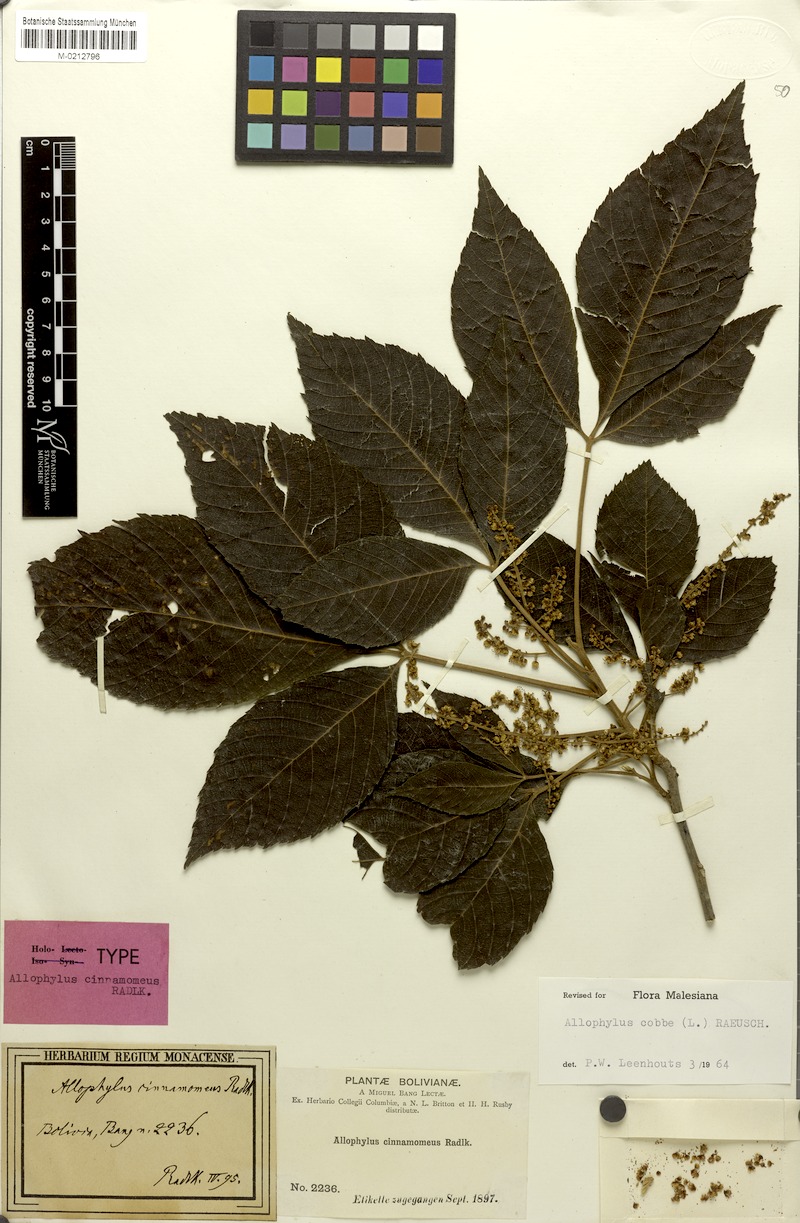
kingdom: Plantae
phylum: Tracheophyta
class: Magnoliopsida
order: Sapindales
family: Sapindaceae
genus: Allophylus
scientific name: Allophylus cinnamomeus
